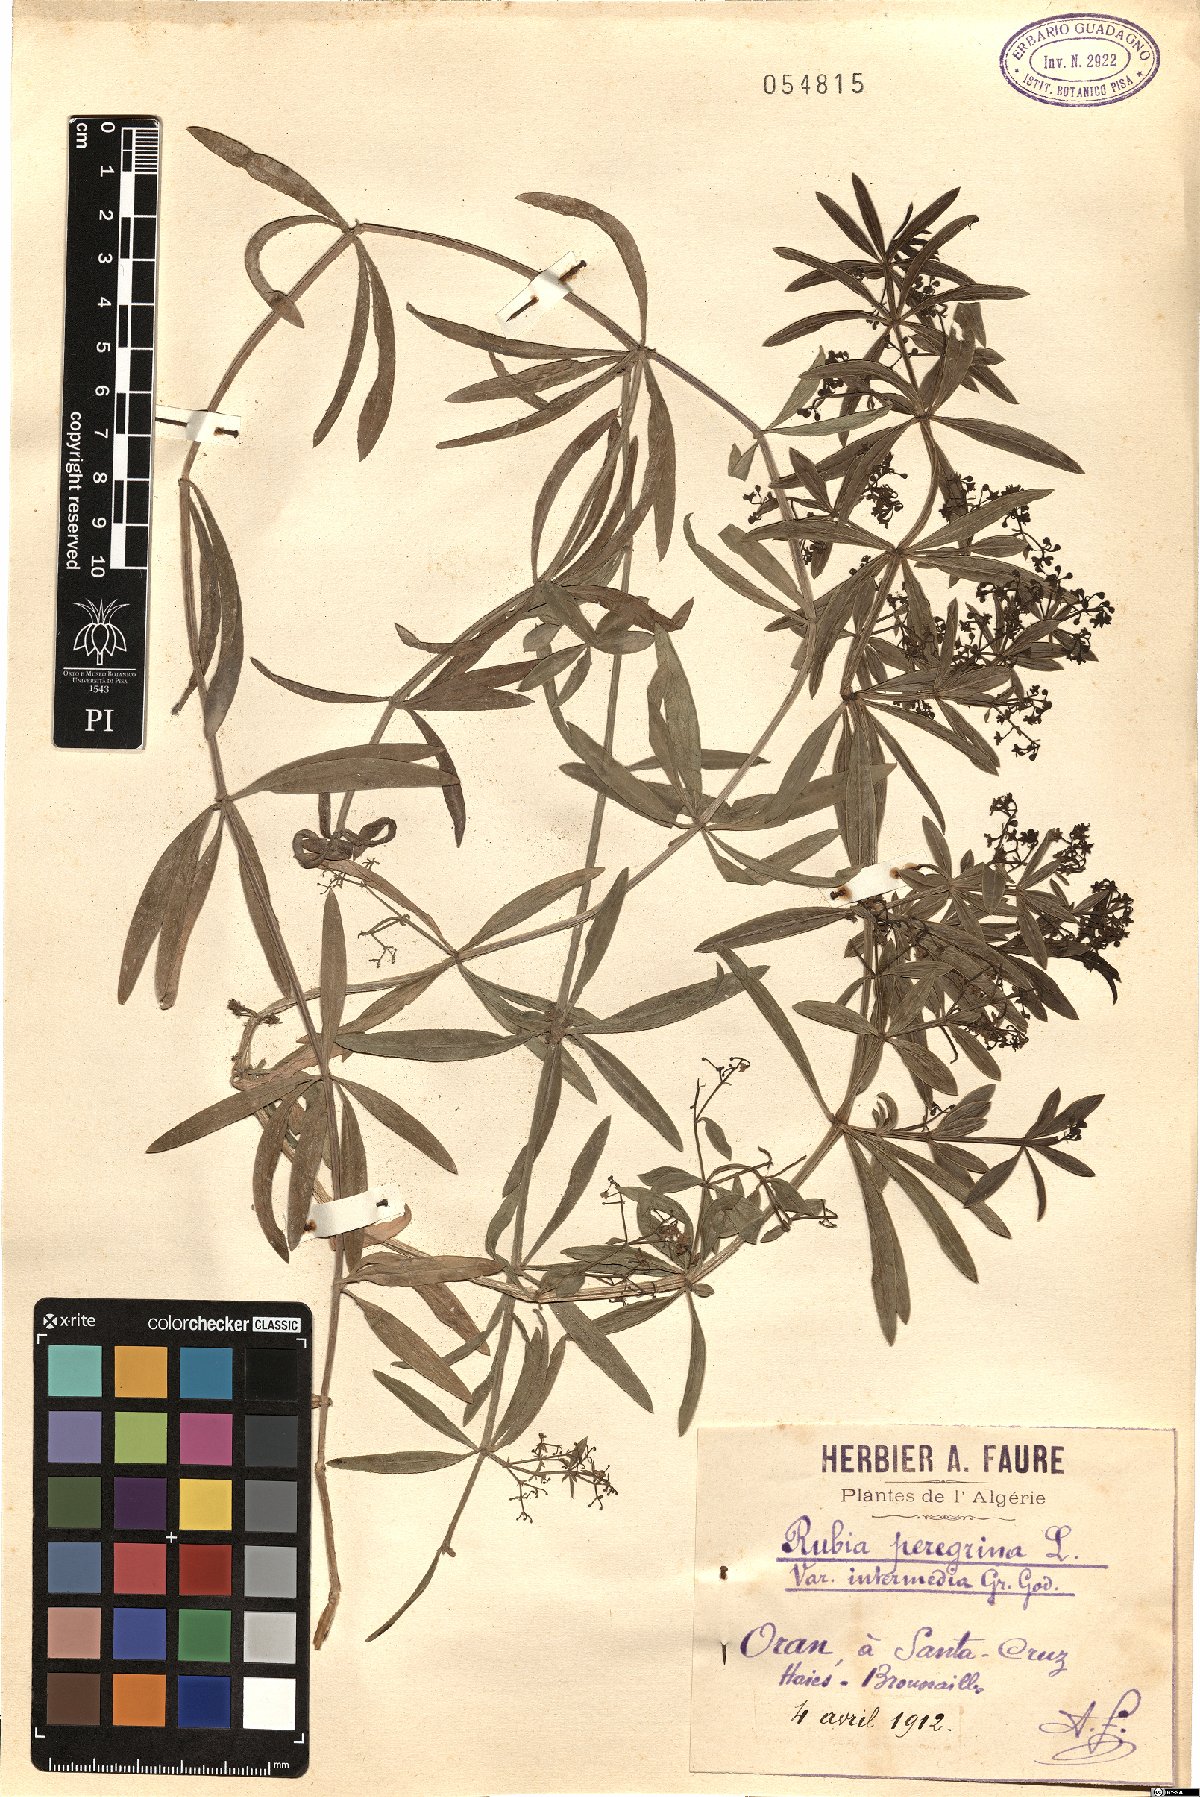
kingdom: Plantae
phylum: Tracheophyta
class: Magnoliopsida
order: Gentianales
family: Rubiaceae
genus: Rubia
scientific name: Rubia peregrina
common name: Wild madder
